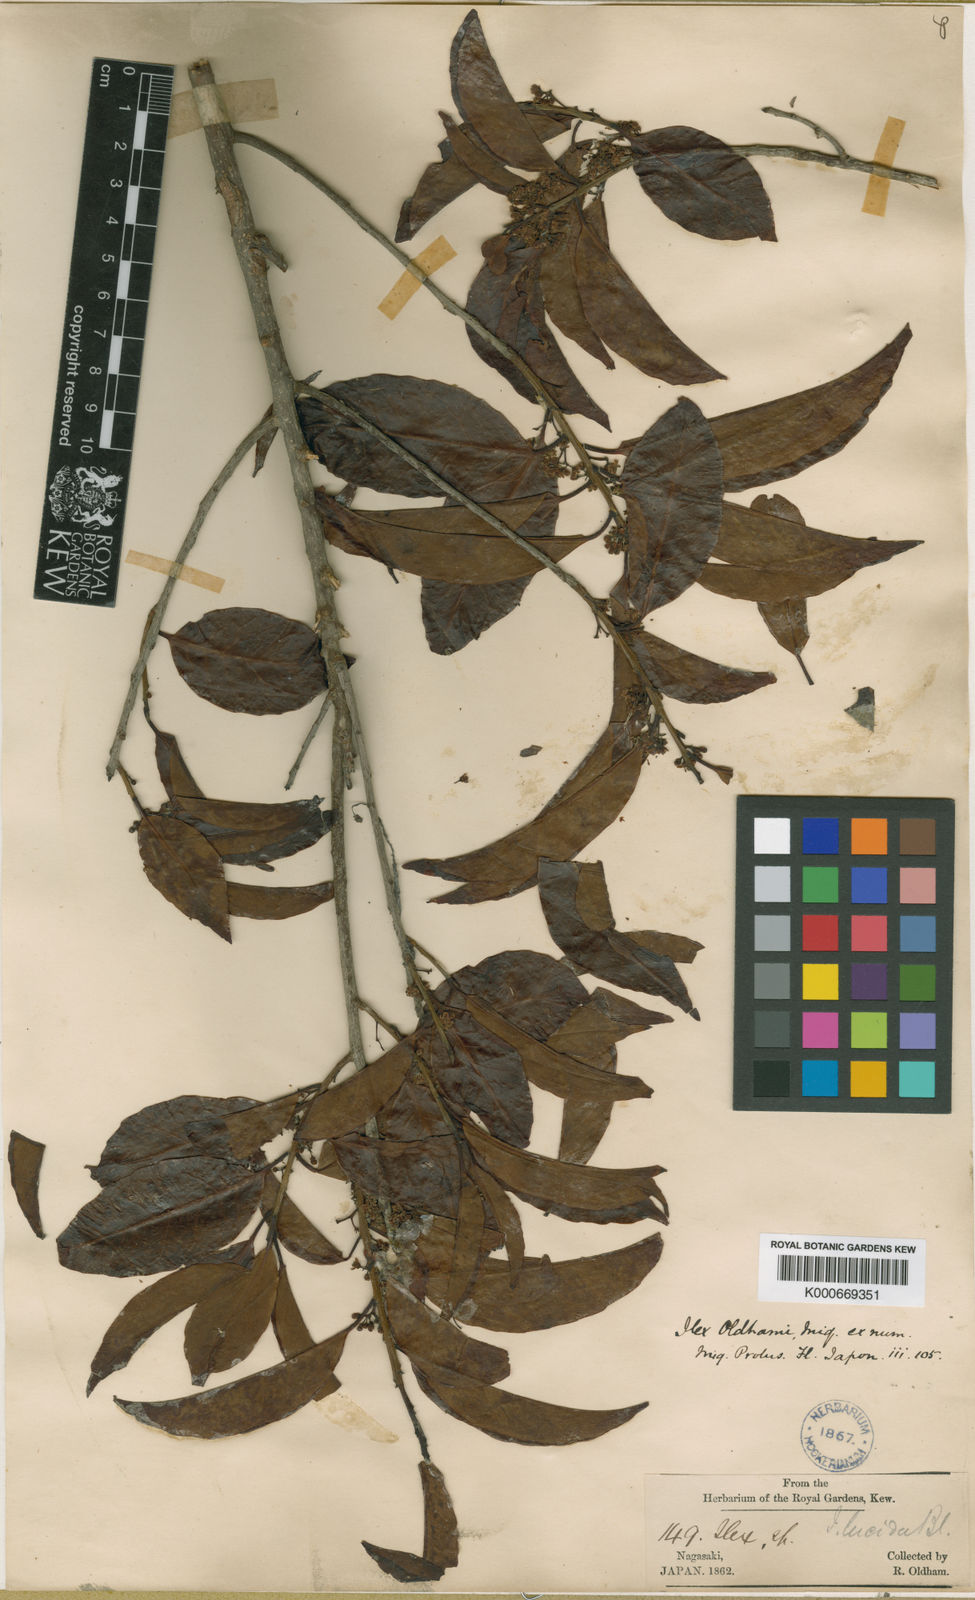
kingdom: Plantae
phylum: Tracheophyta
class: Magnoliopsida
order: Aquifoliales
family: Aquifoliaceae
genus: Ilex
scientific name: Ilex chinensis
